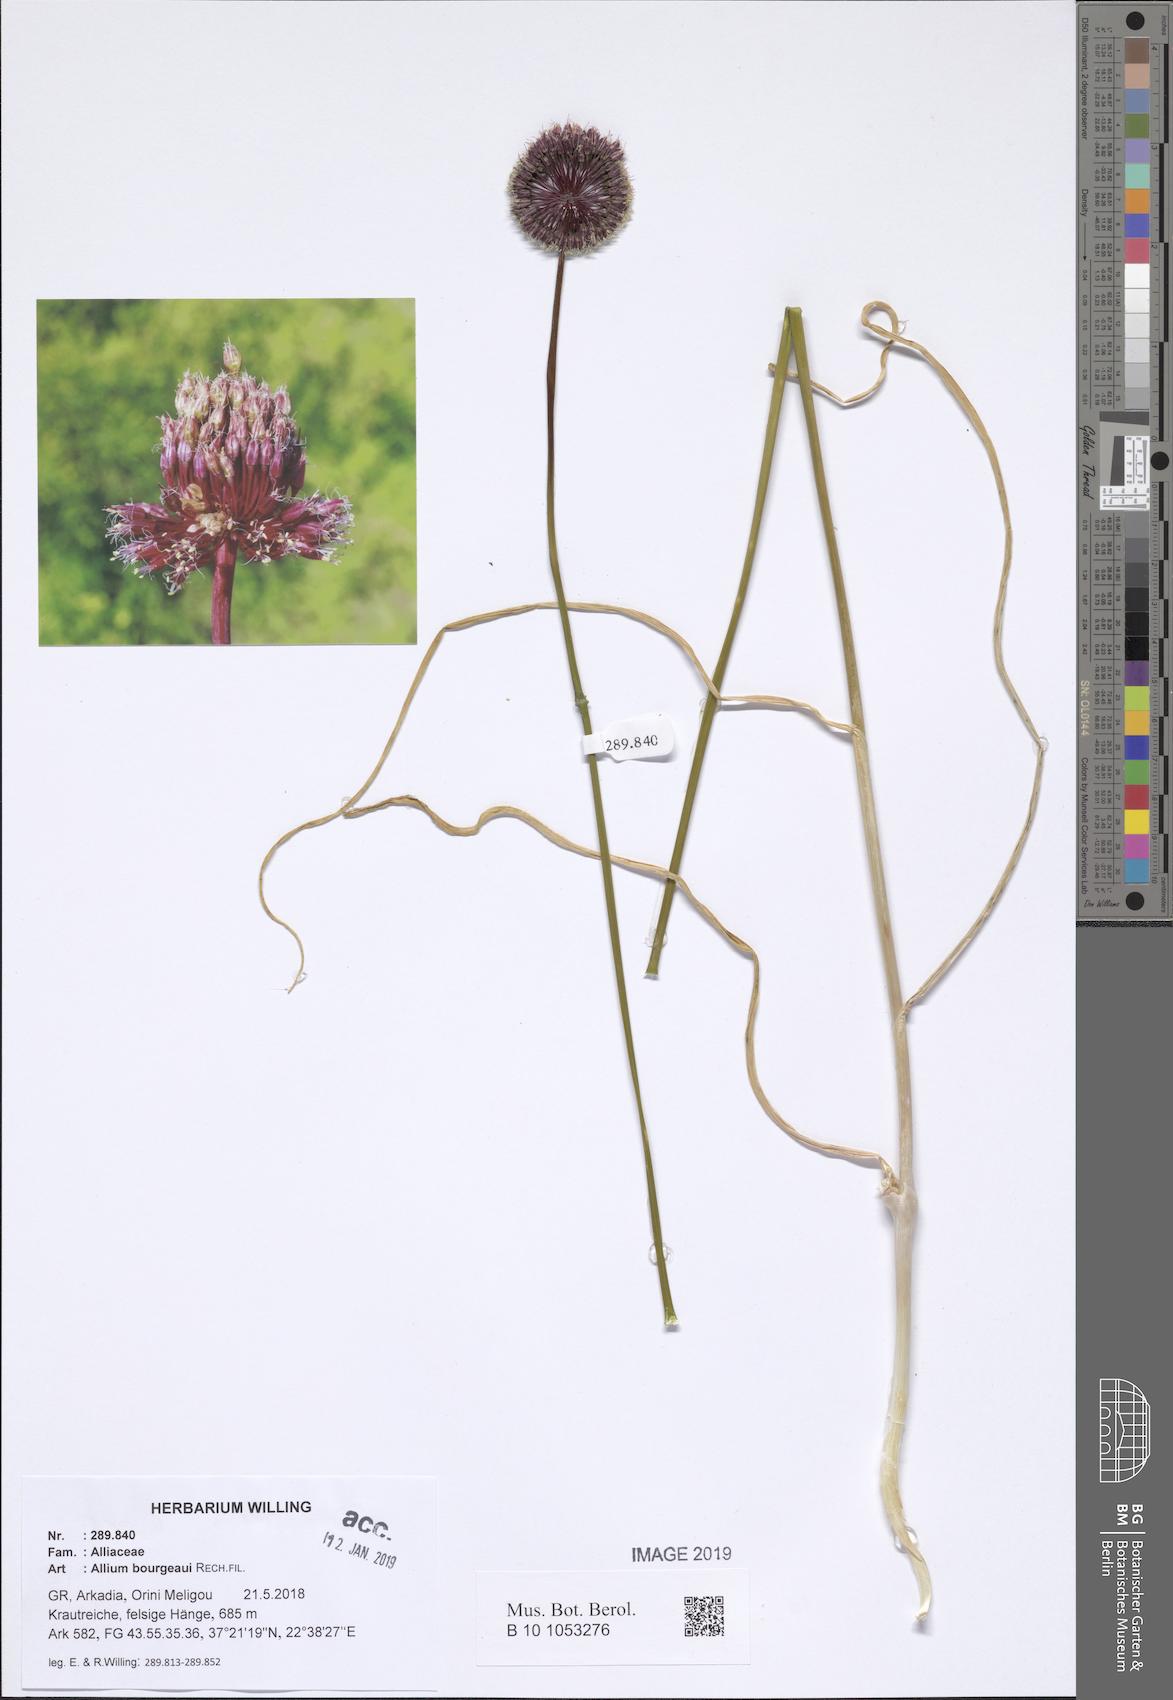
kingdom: Plantae
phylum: Tracheophyta
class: Liliopsida
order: Asparagales
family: Amaryllidaceae
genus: Allium
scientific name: Allium bourgeaui
